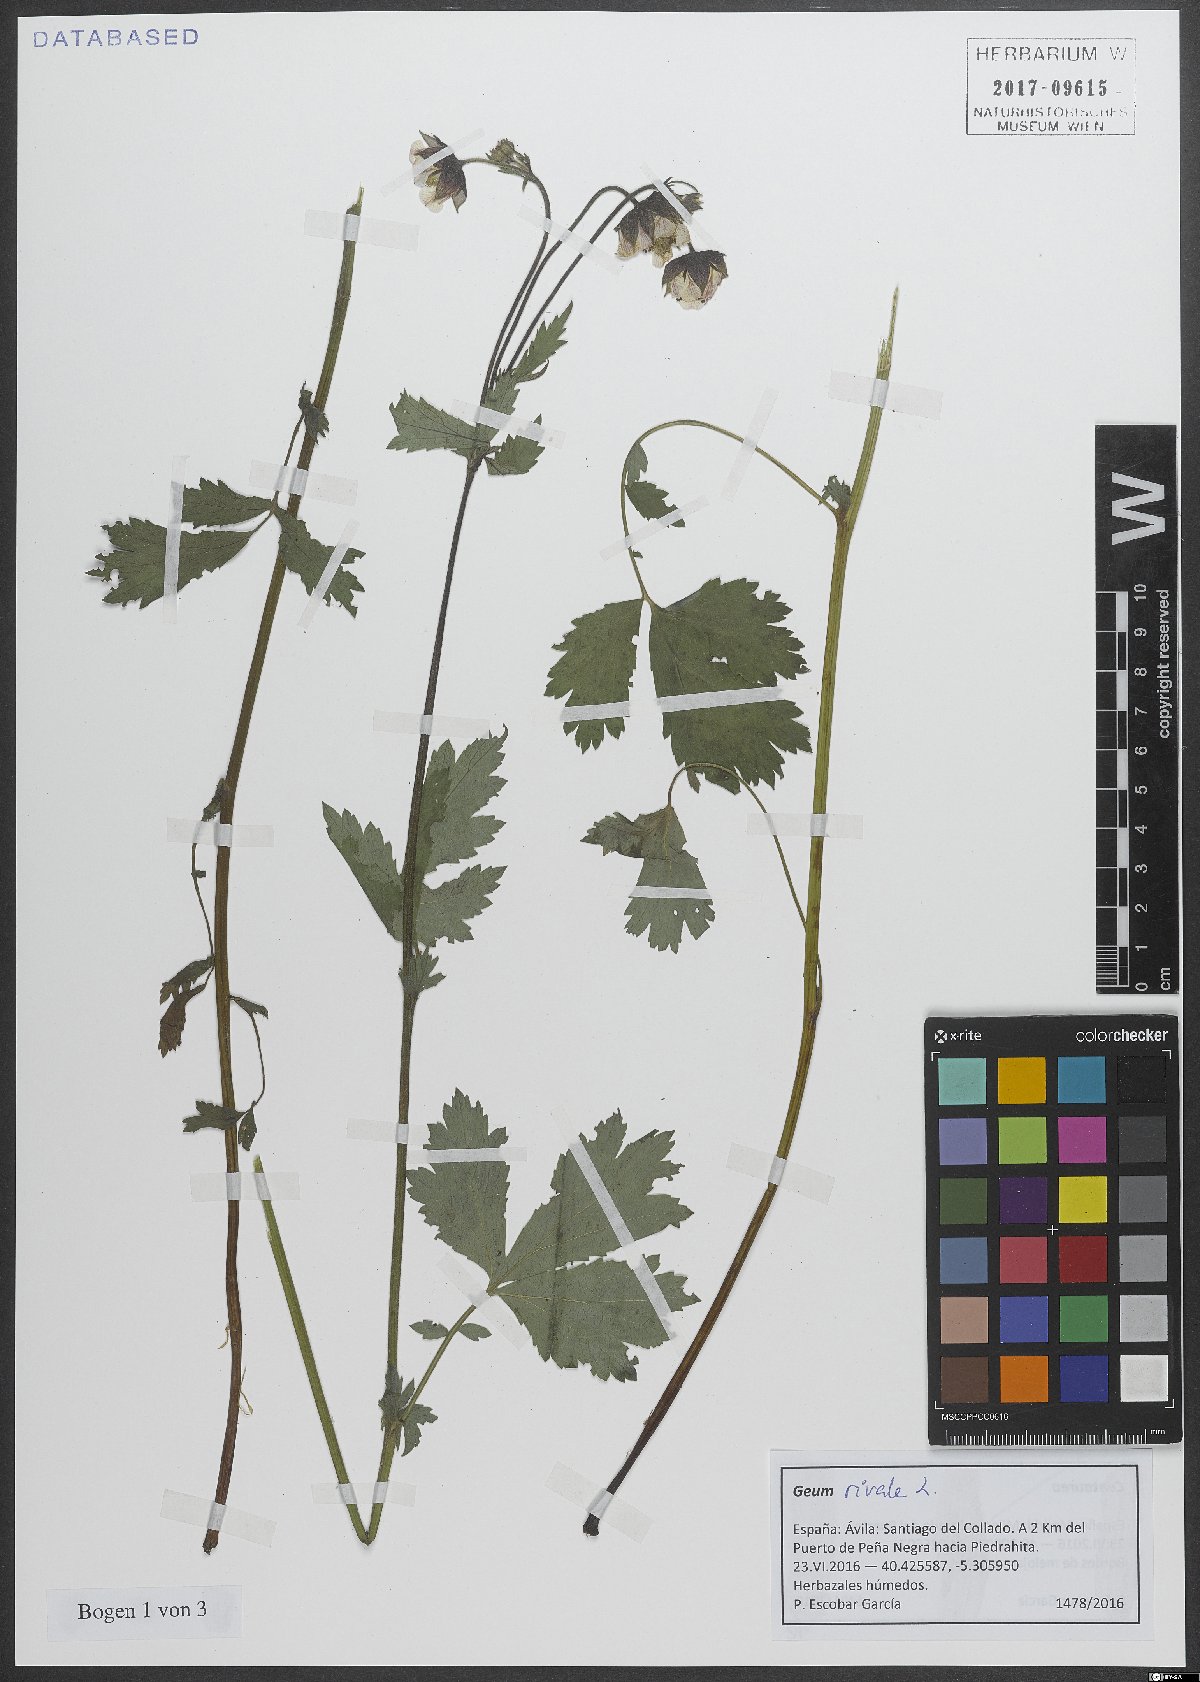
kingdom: Plantae
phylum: Tracheophyta
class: Magnoliopsida
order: Rosales
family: Rosaceae
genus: Geum
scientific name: Geum rivale
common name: Water avens
